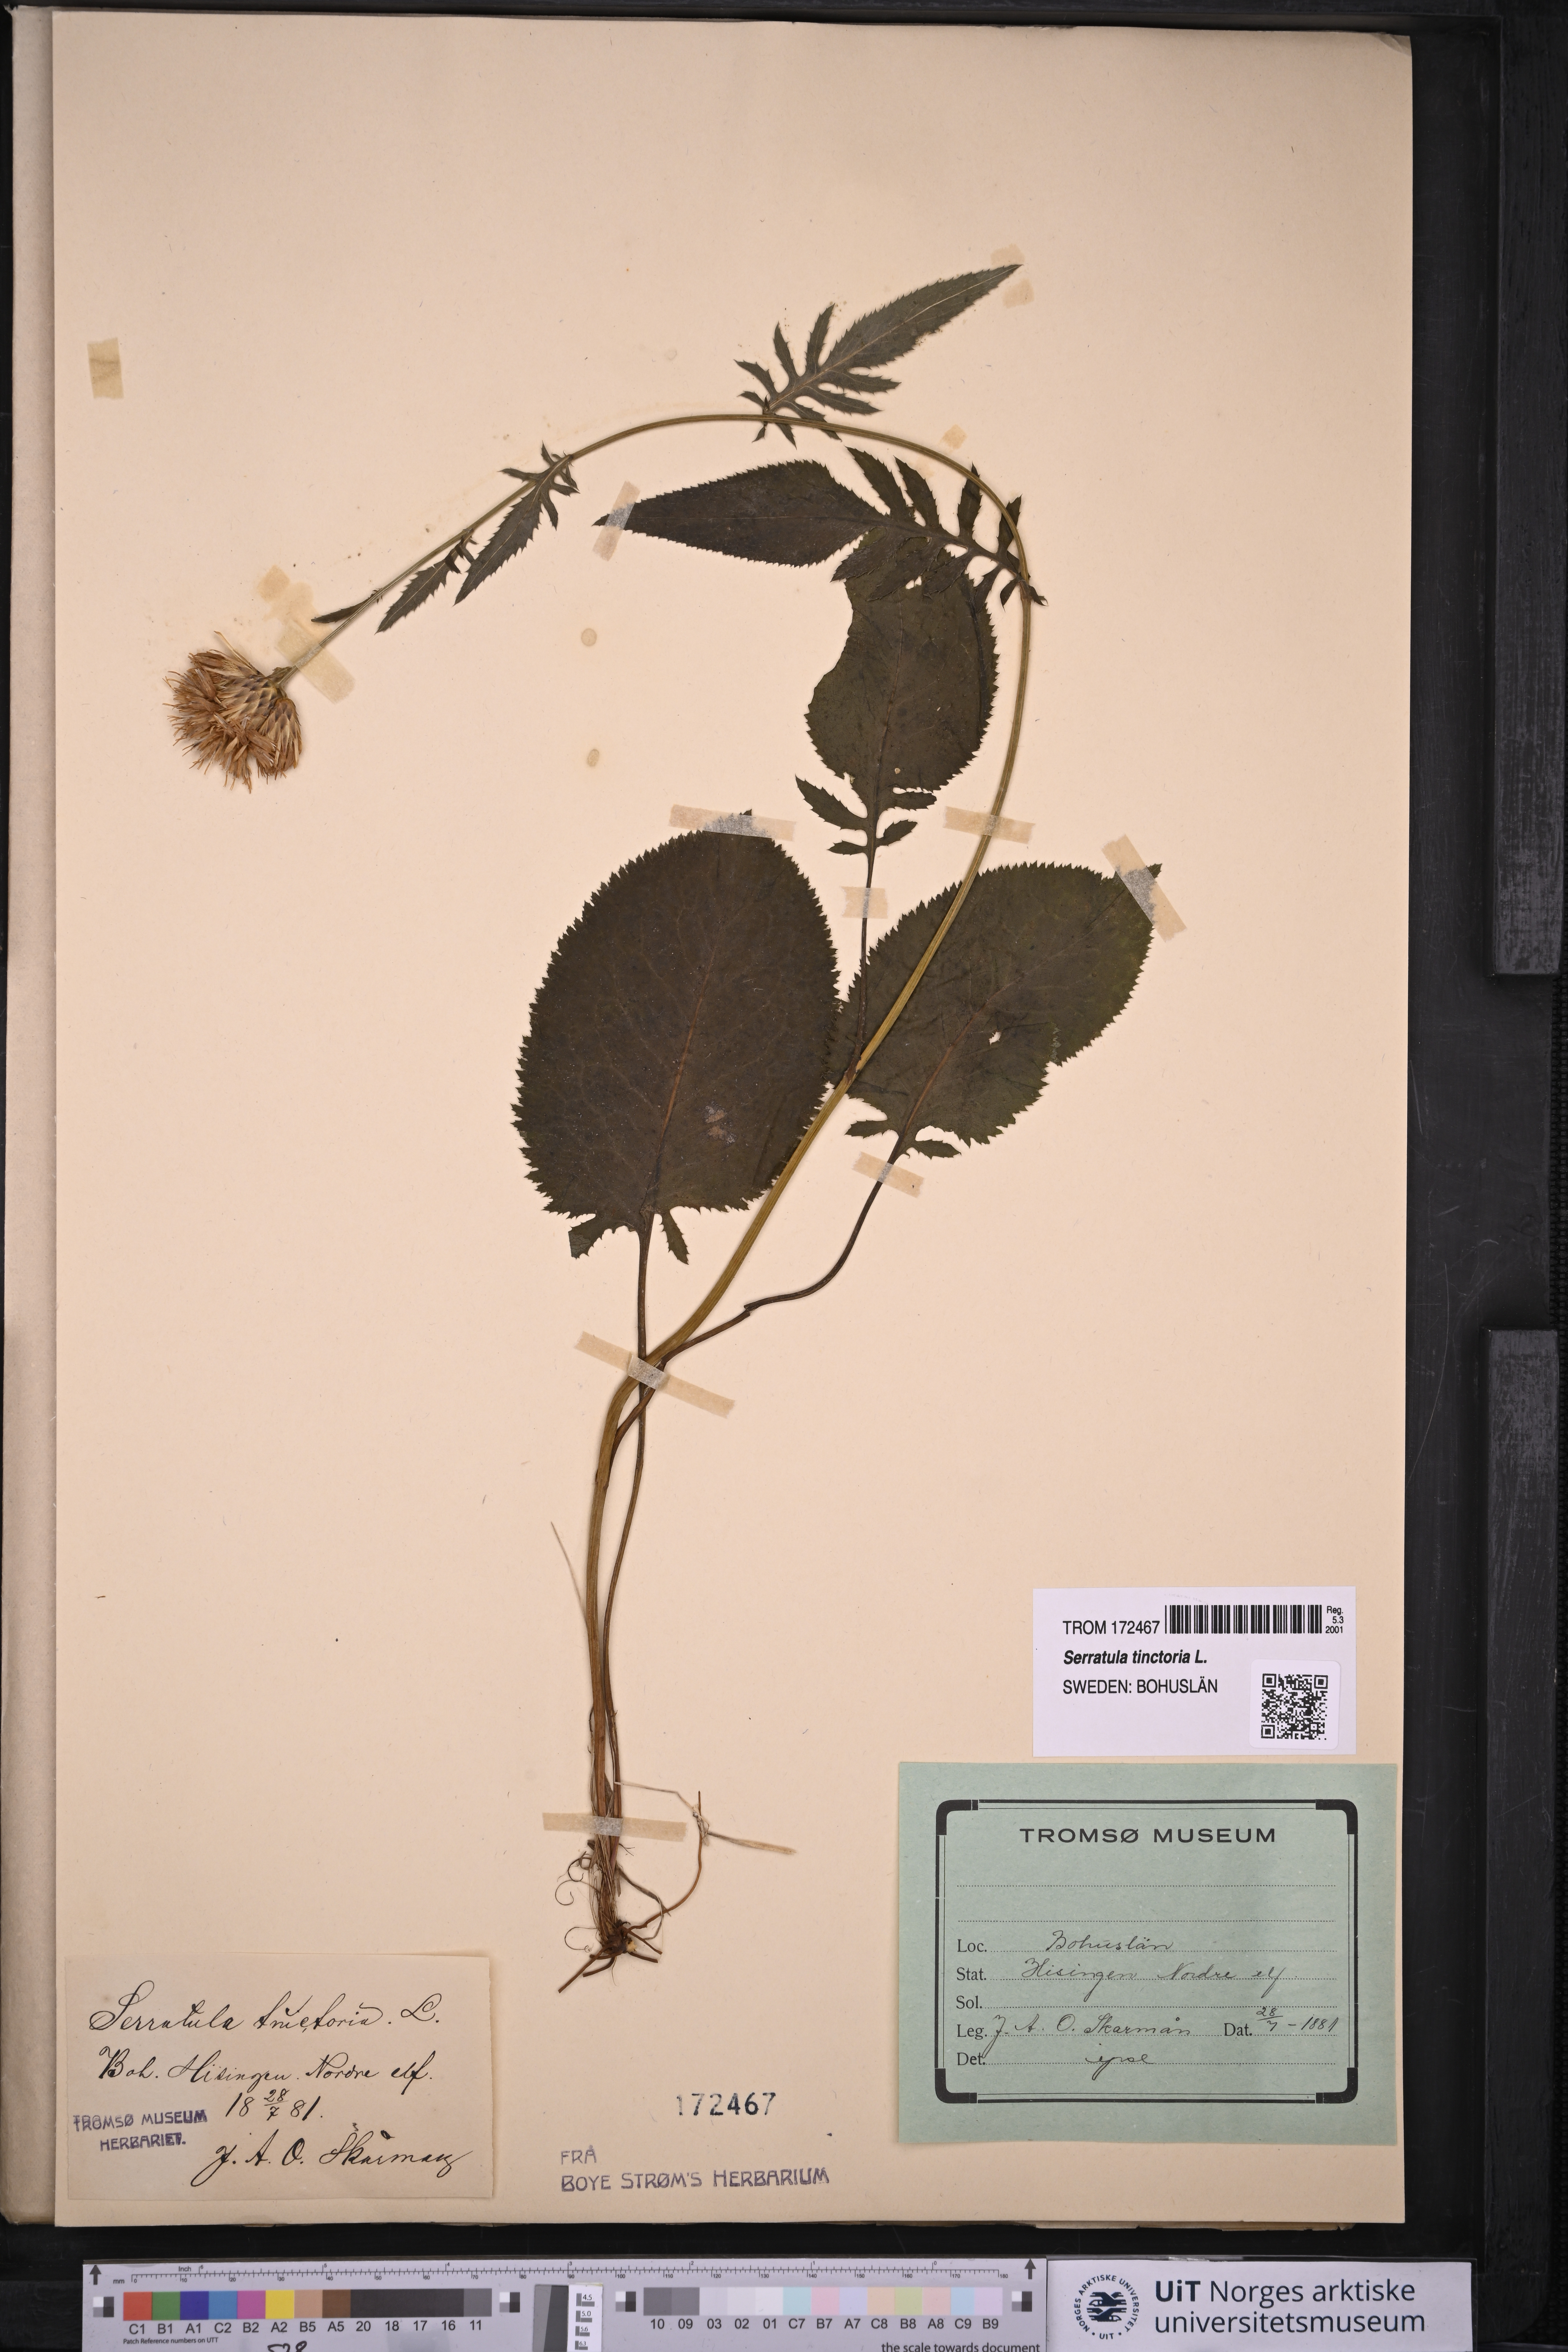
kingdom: Plantae
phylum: Tracheophyta
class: Magnoliopsida
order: Asterales
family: Asteraceae
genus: Serratula
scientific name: Serratula tinctoria
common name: Saw-wort
